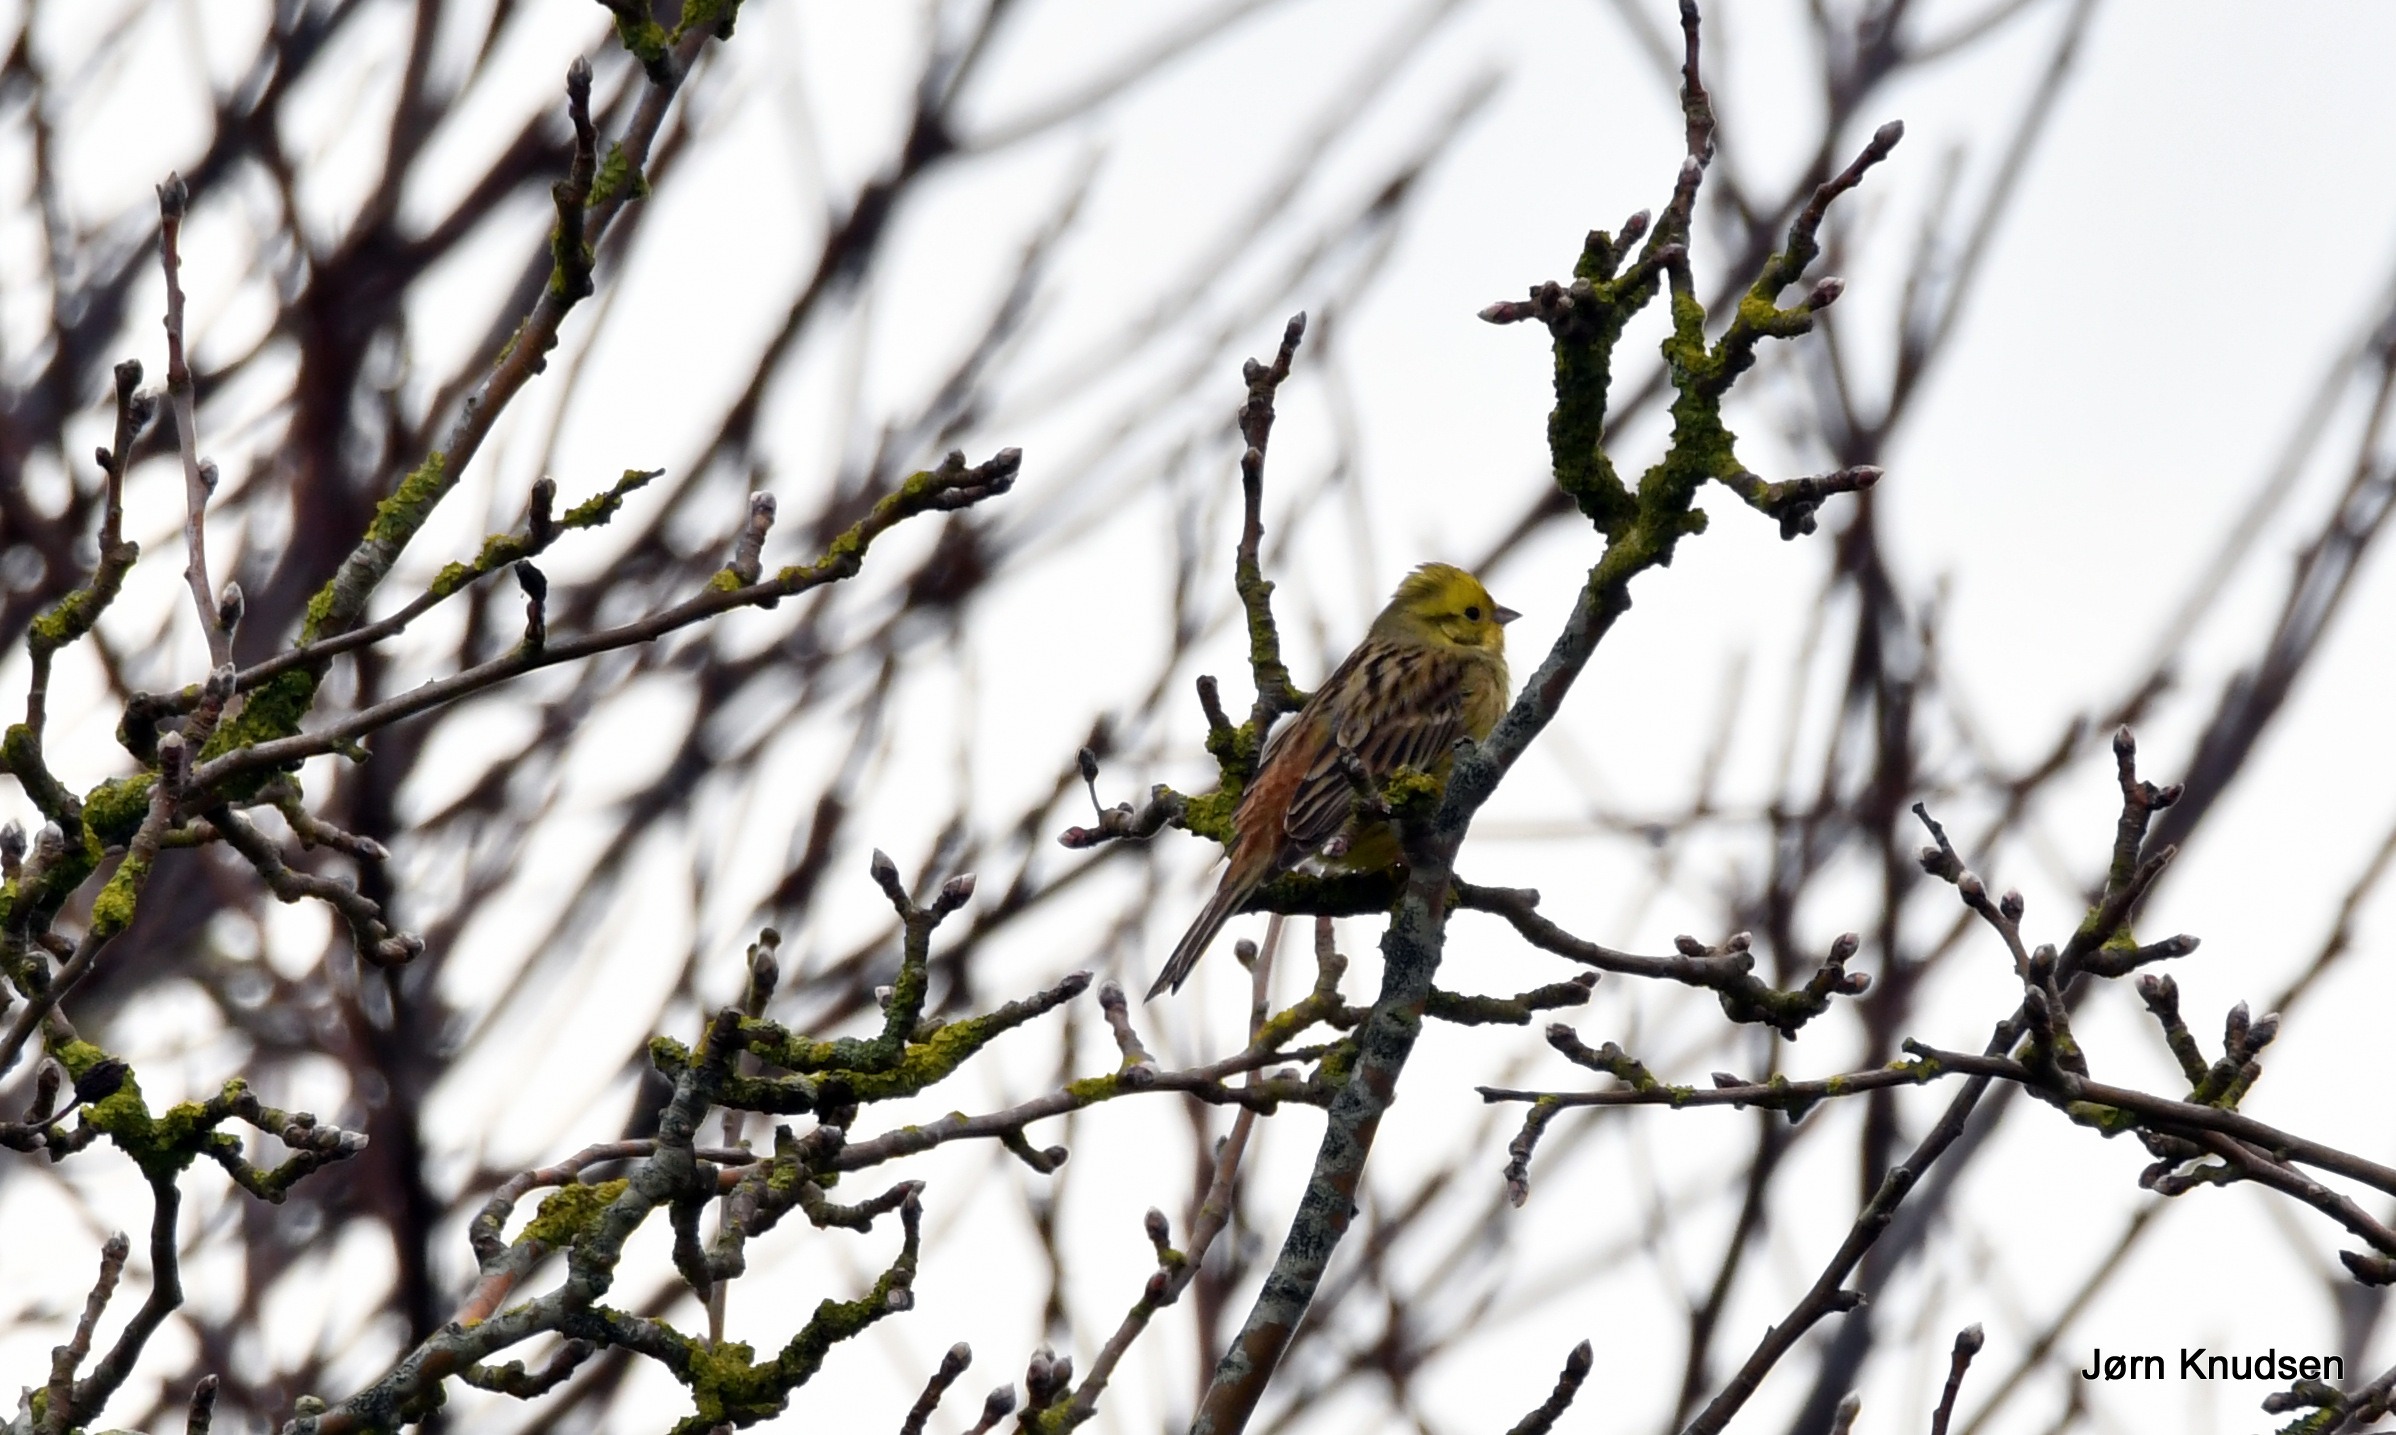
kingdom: Animalia
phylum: Chordata
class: Aves
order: Passeriformes
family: Emberizidae
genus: Emberiza
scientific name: Emberiza citrinella
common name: Gulspurv
